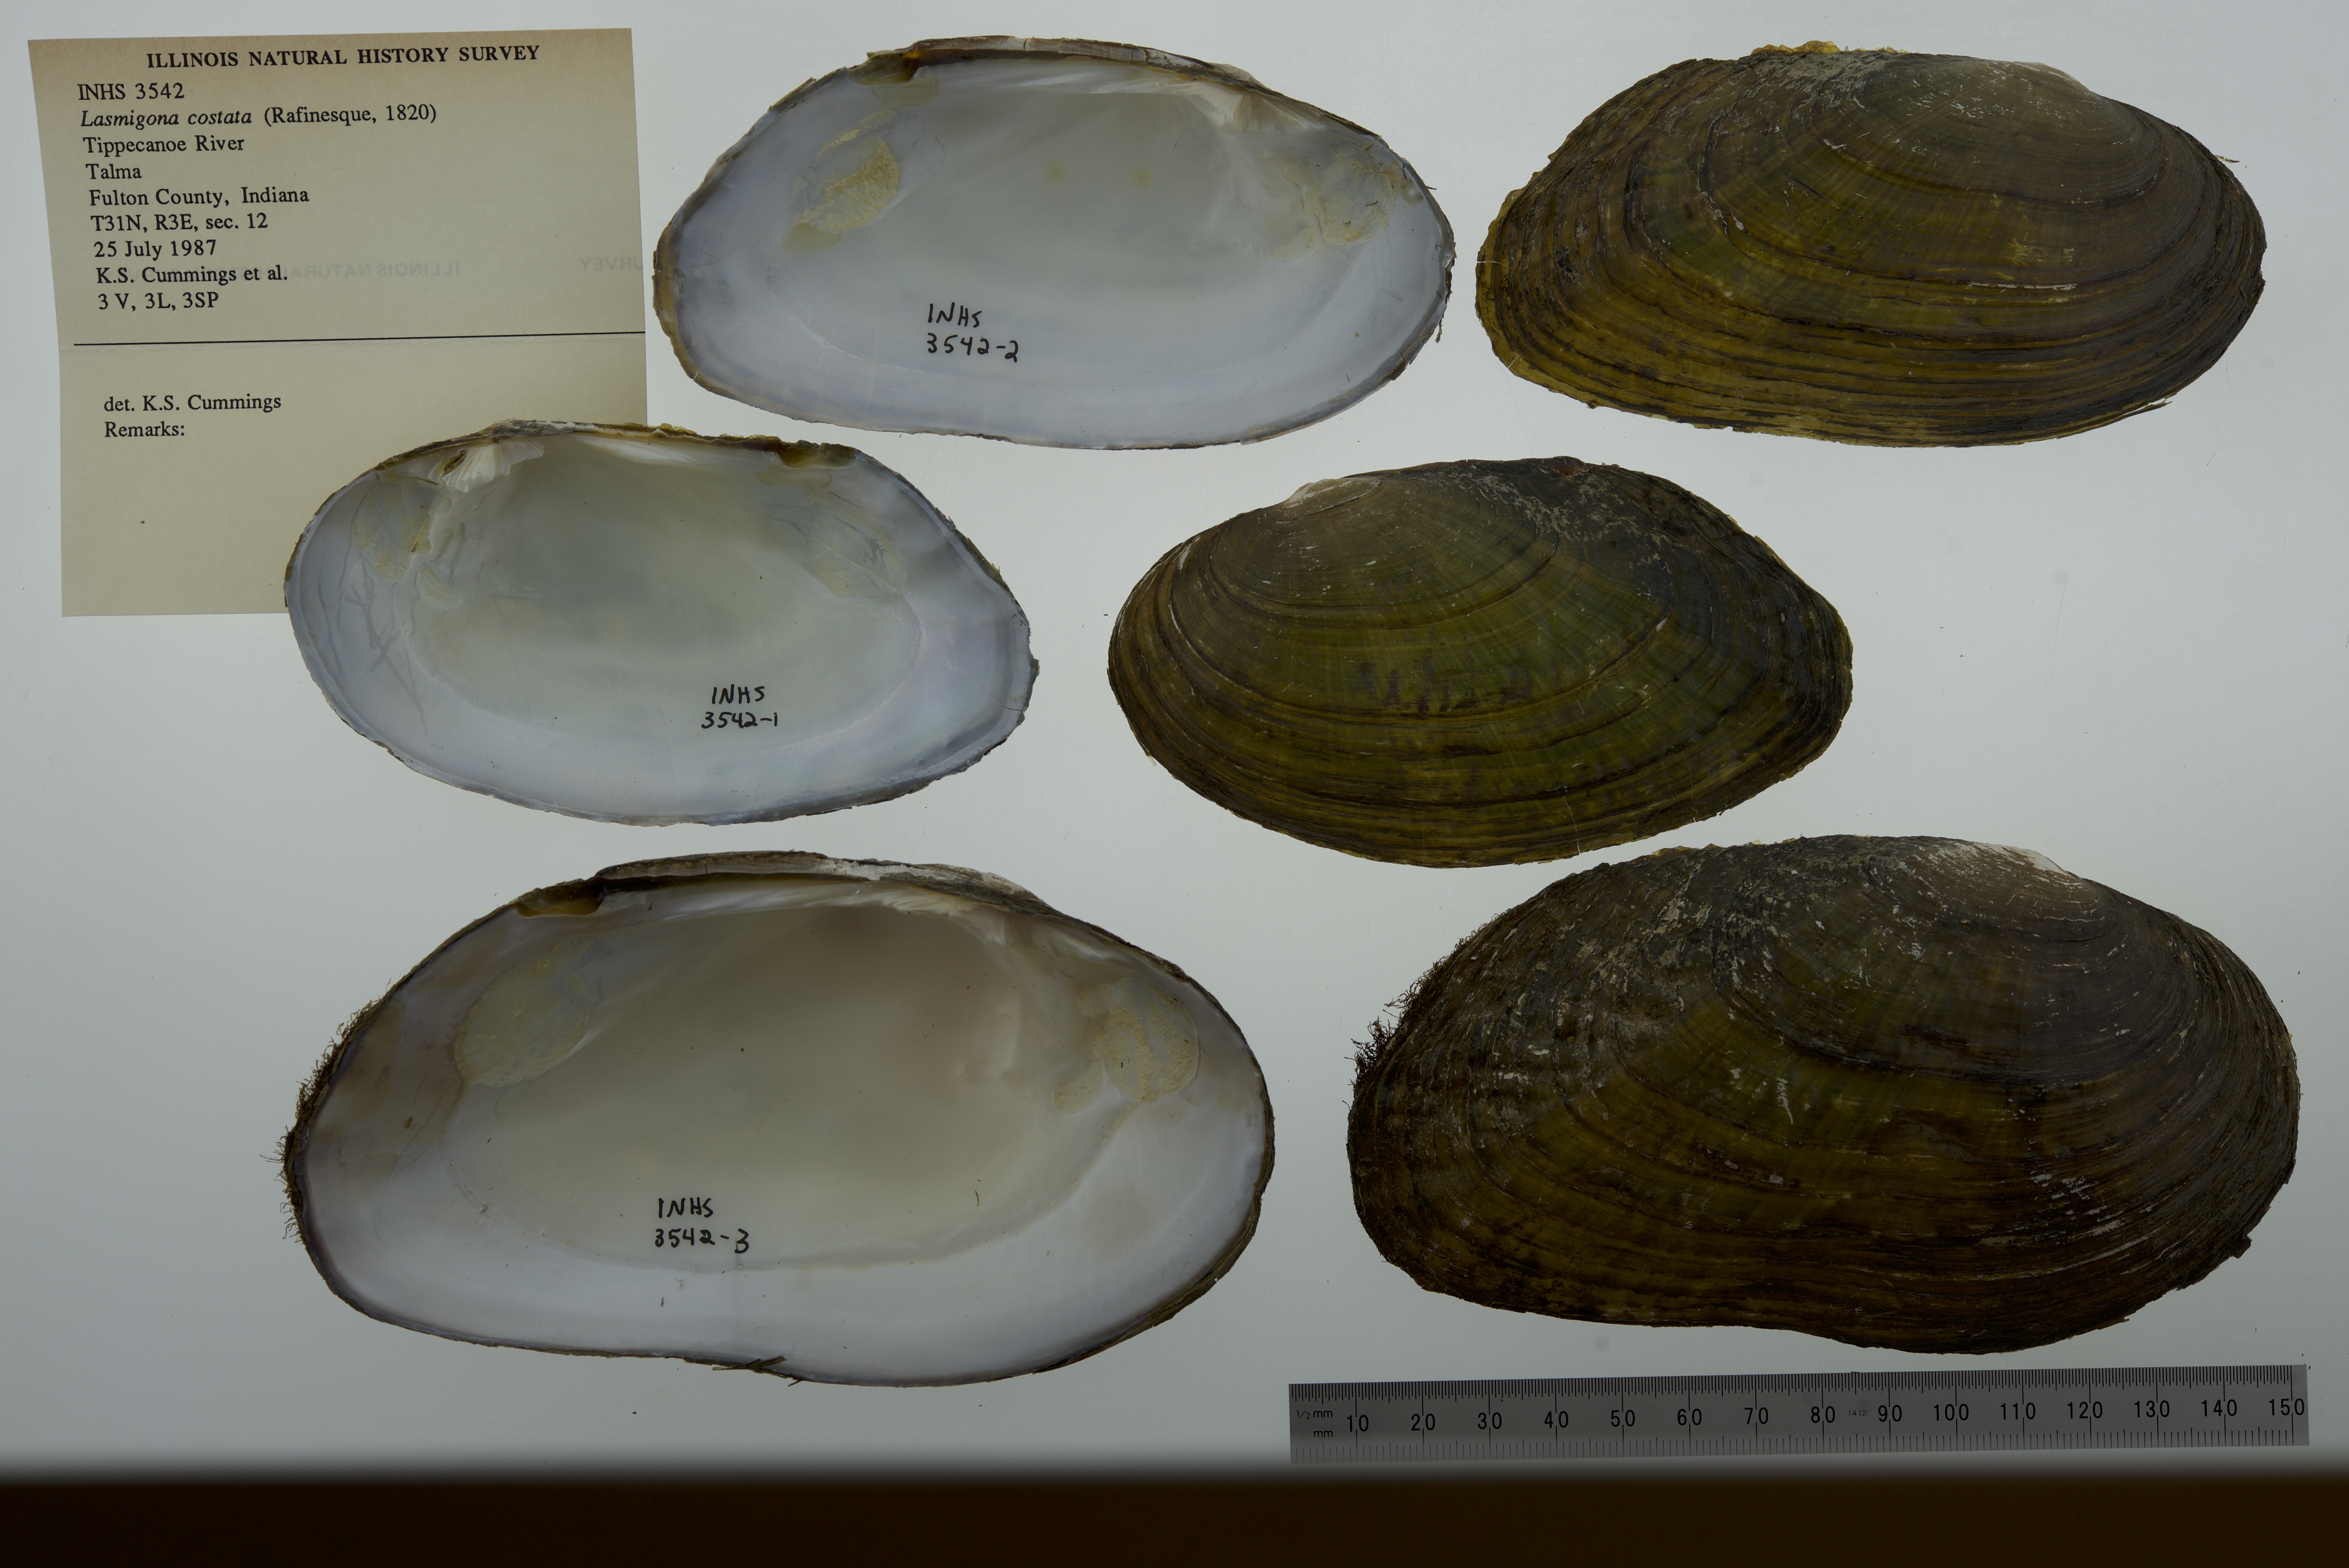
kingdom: Animalia
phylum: Mollusca
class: Bivalvia
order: Unionida
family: Unionidae
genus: Lasmigona
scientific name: Lasmigona costata
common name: Flutedshell
